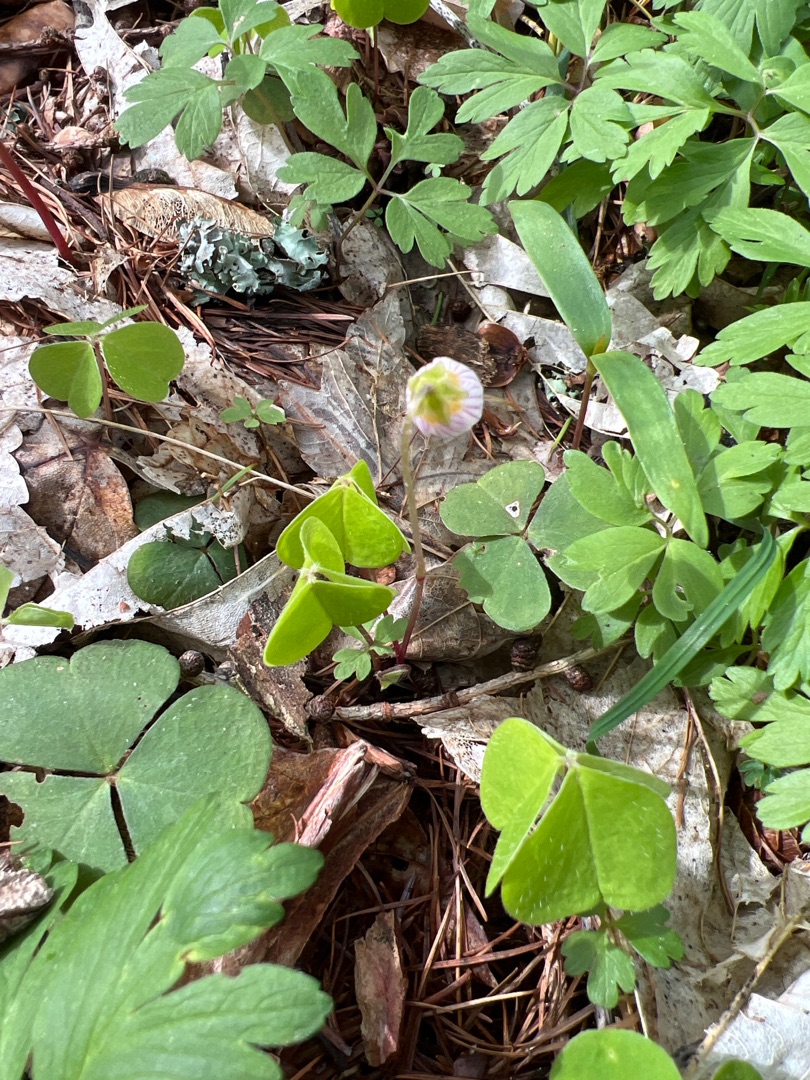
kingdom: Plantae
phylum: Tracheophyta
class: Magnoliopsida
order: Oxalidales
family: Oxalidaceae
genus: Oxalis
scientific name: Oxalis acetosella
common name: Skovsyre
